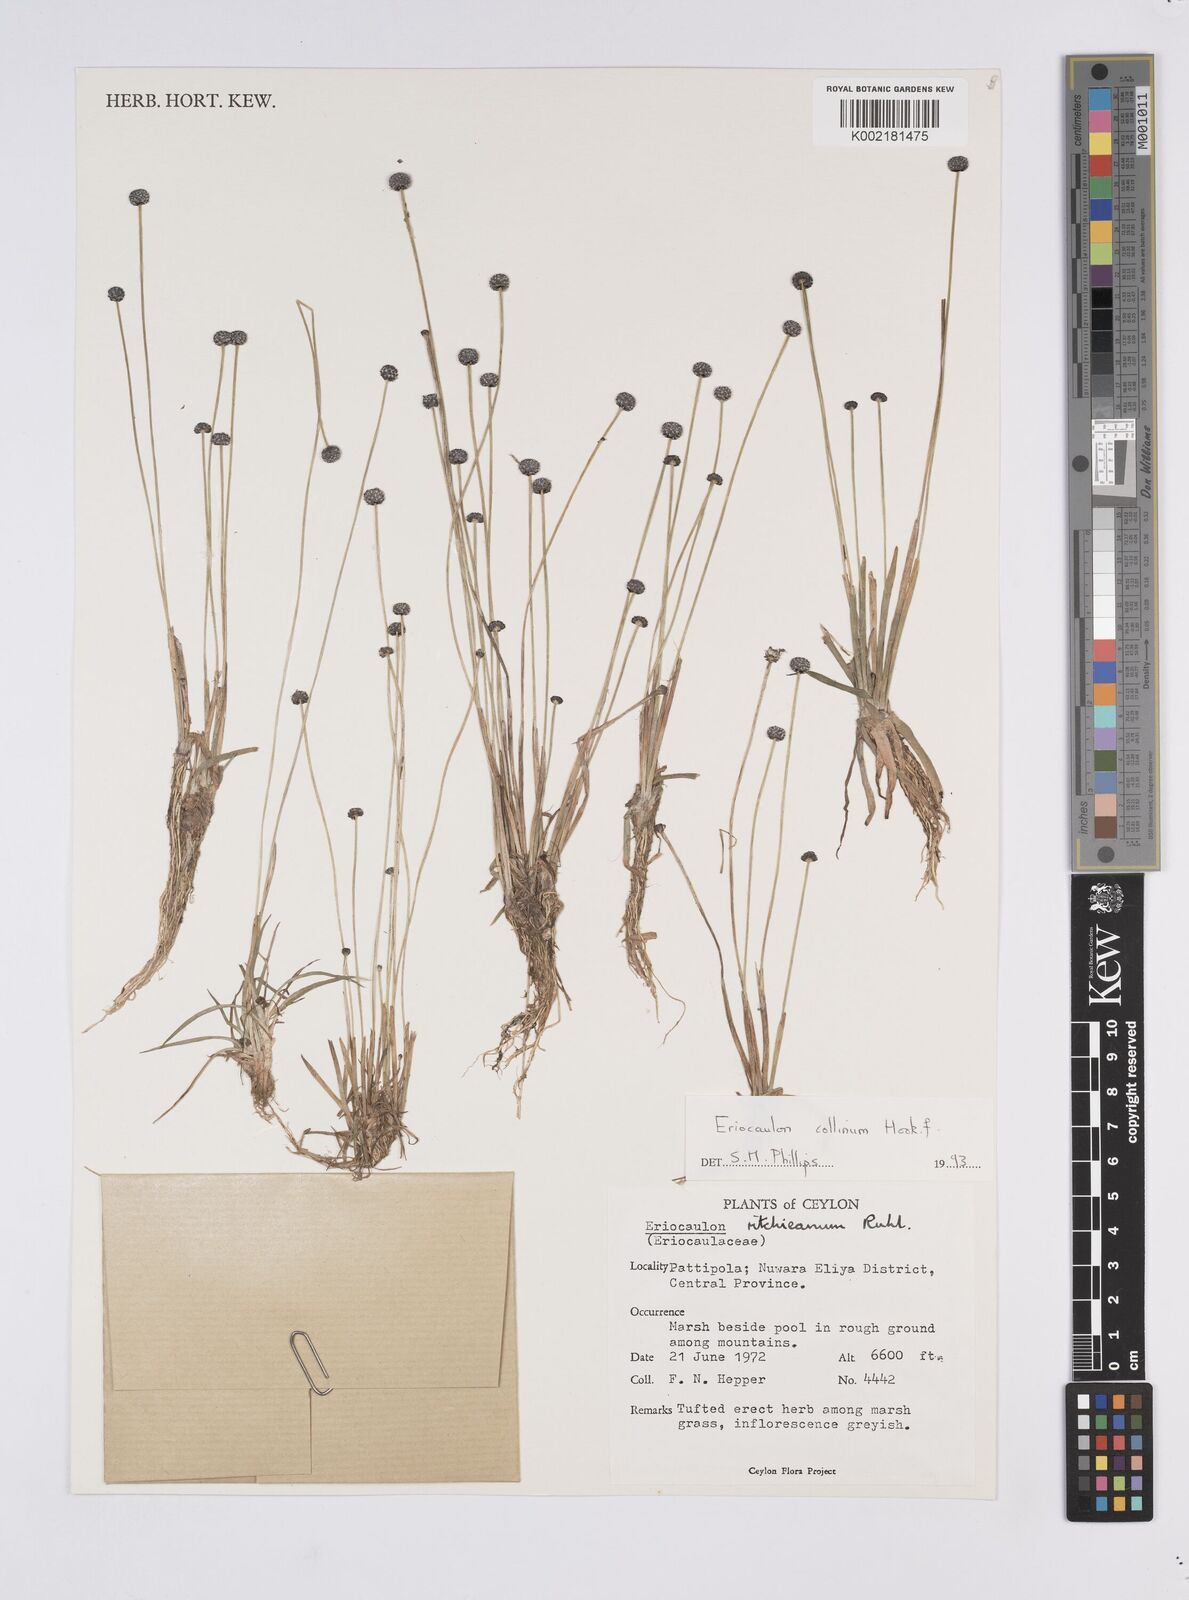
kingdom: Plantae
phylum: Tracheophyta
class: Liliopsida
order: Poales
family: Eriocaulaceae
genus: Eriocaulon
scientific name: Eriocaulon odoratum
